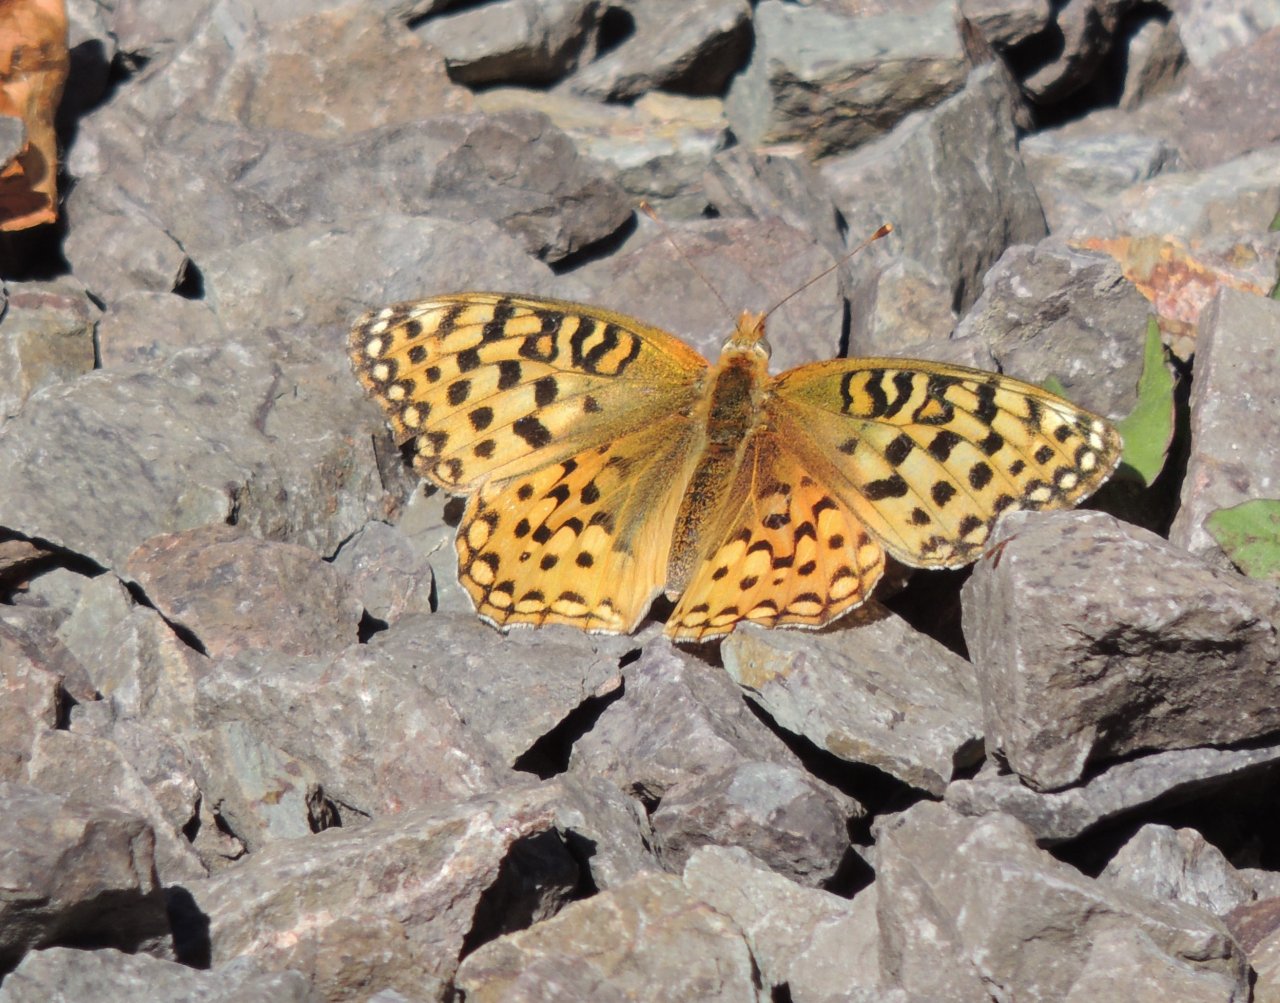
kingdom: Animalia
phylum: Arthropoda
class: Insecta
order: Lepidoptera
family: Nymphalidae
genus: Speyeria
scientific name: Speyeria zerene
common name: Zerene Fritillary
